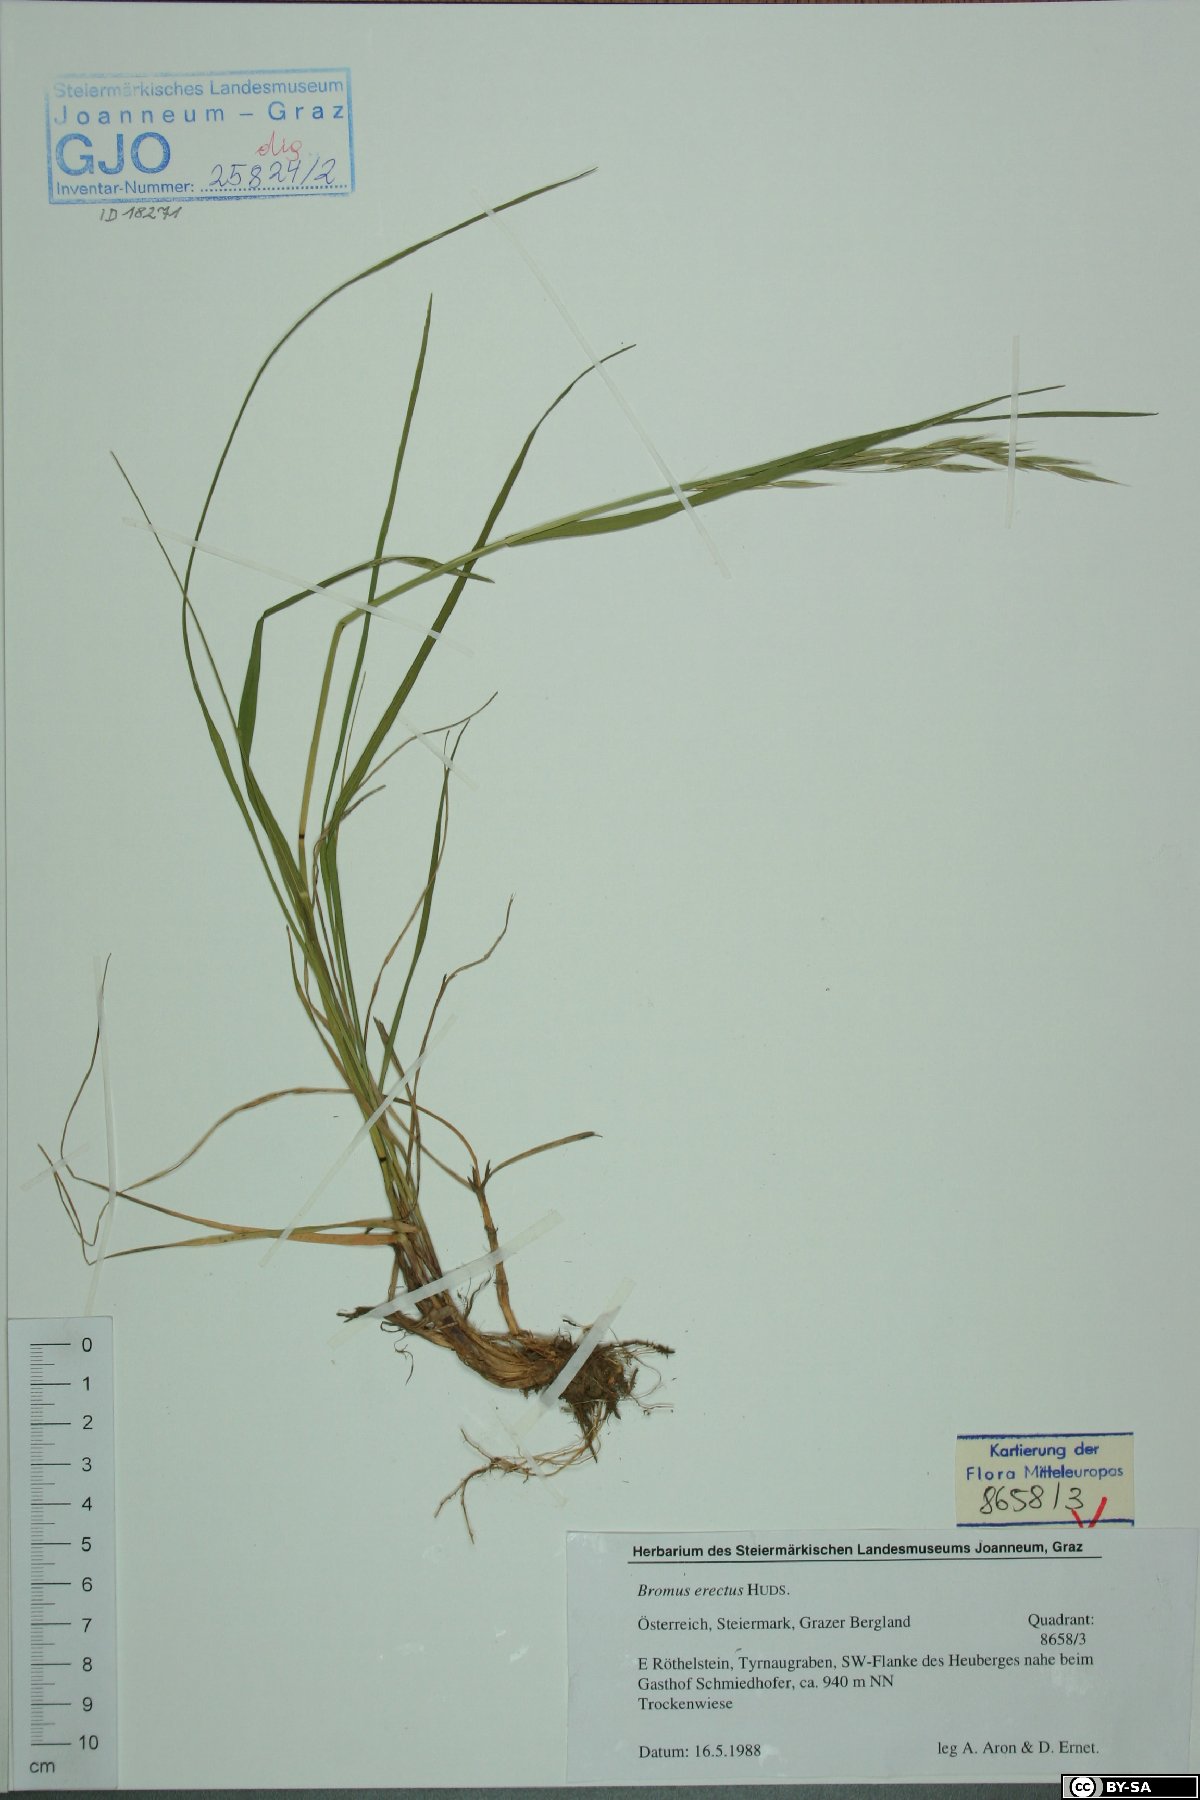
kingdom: Plantae
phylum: Tracheophyta
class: Liliopsida
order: Poales
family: Poaceae
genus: Bromus
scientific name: Bromus erectus
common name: Erect brome
